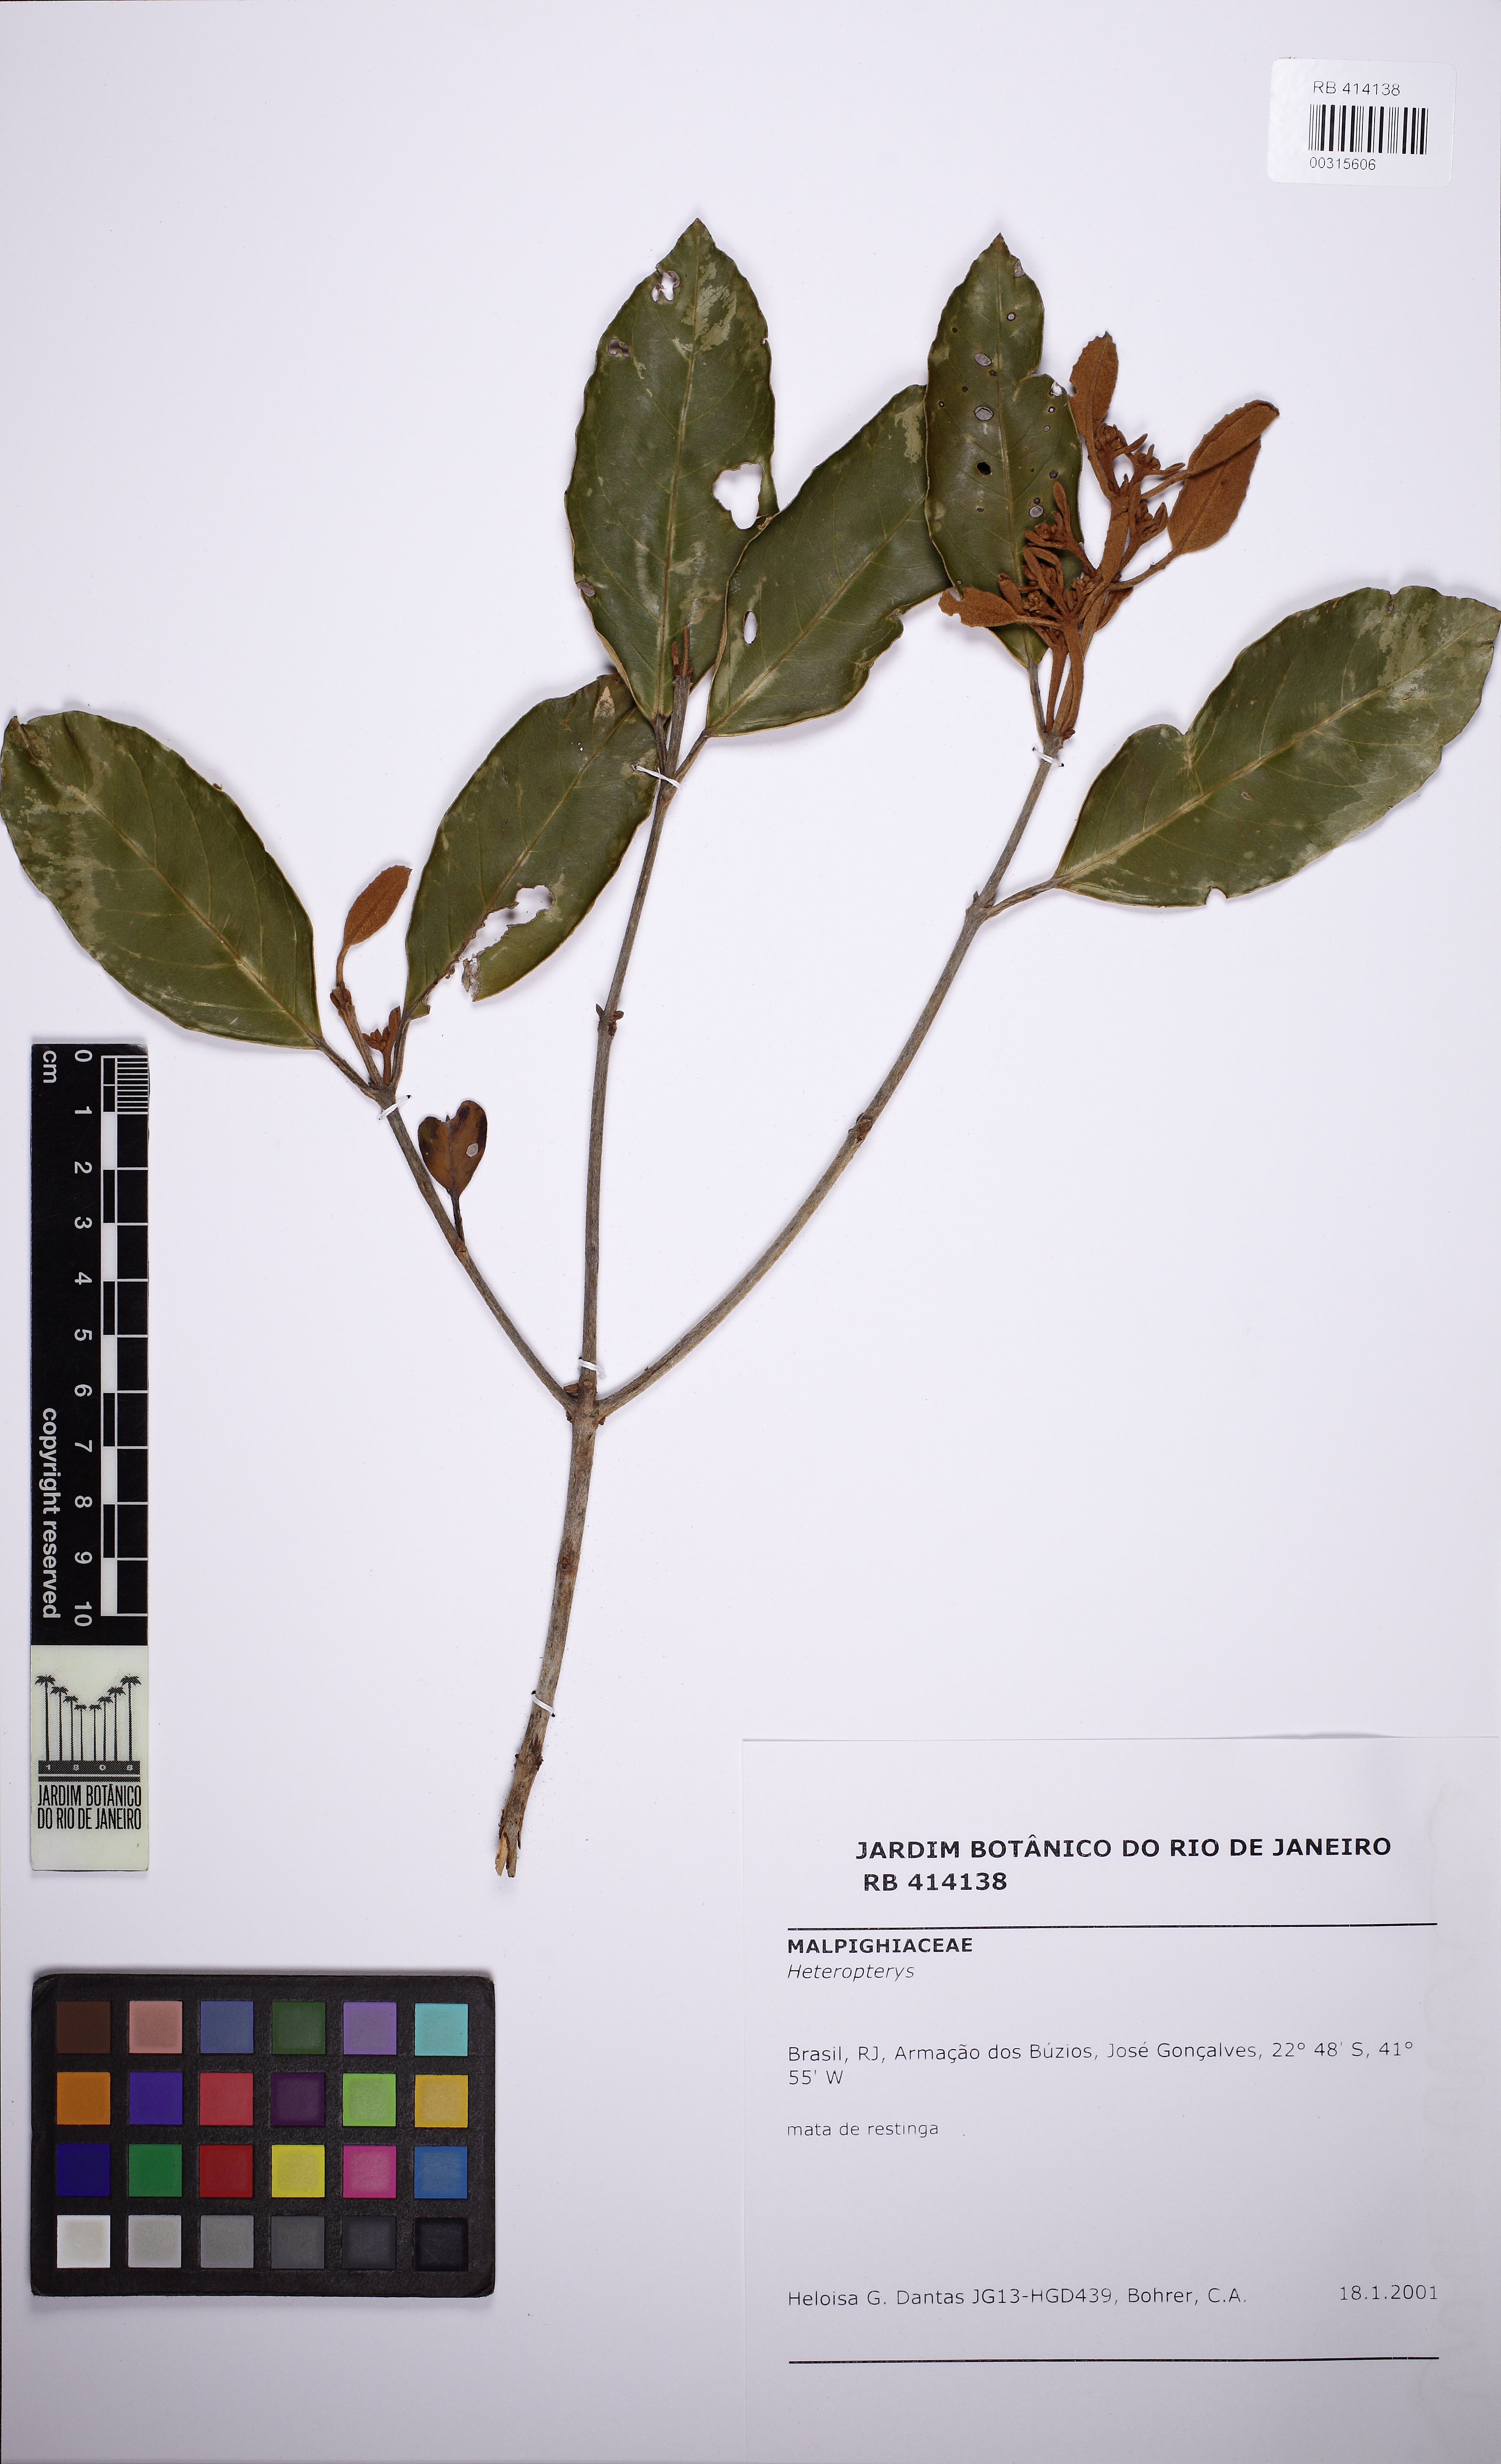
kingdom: Plantae
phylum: Tracheophyta
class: Magnoliopsida
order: Malpighiales
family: Malpighiaceae
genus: Heteropterys
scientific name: Heteropterys
